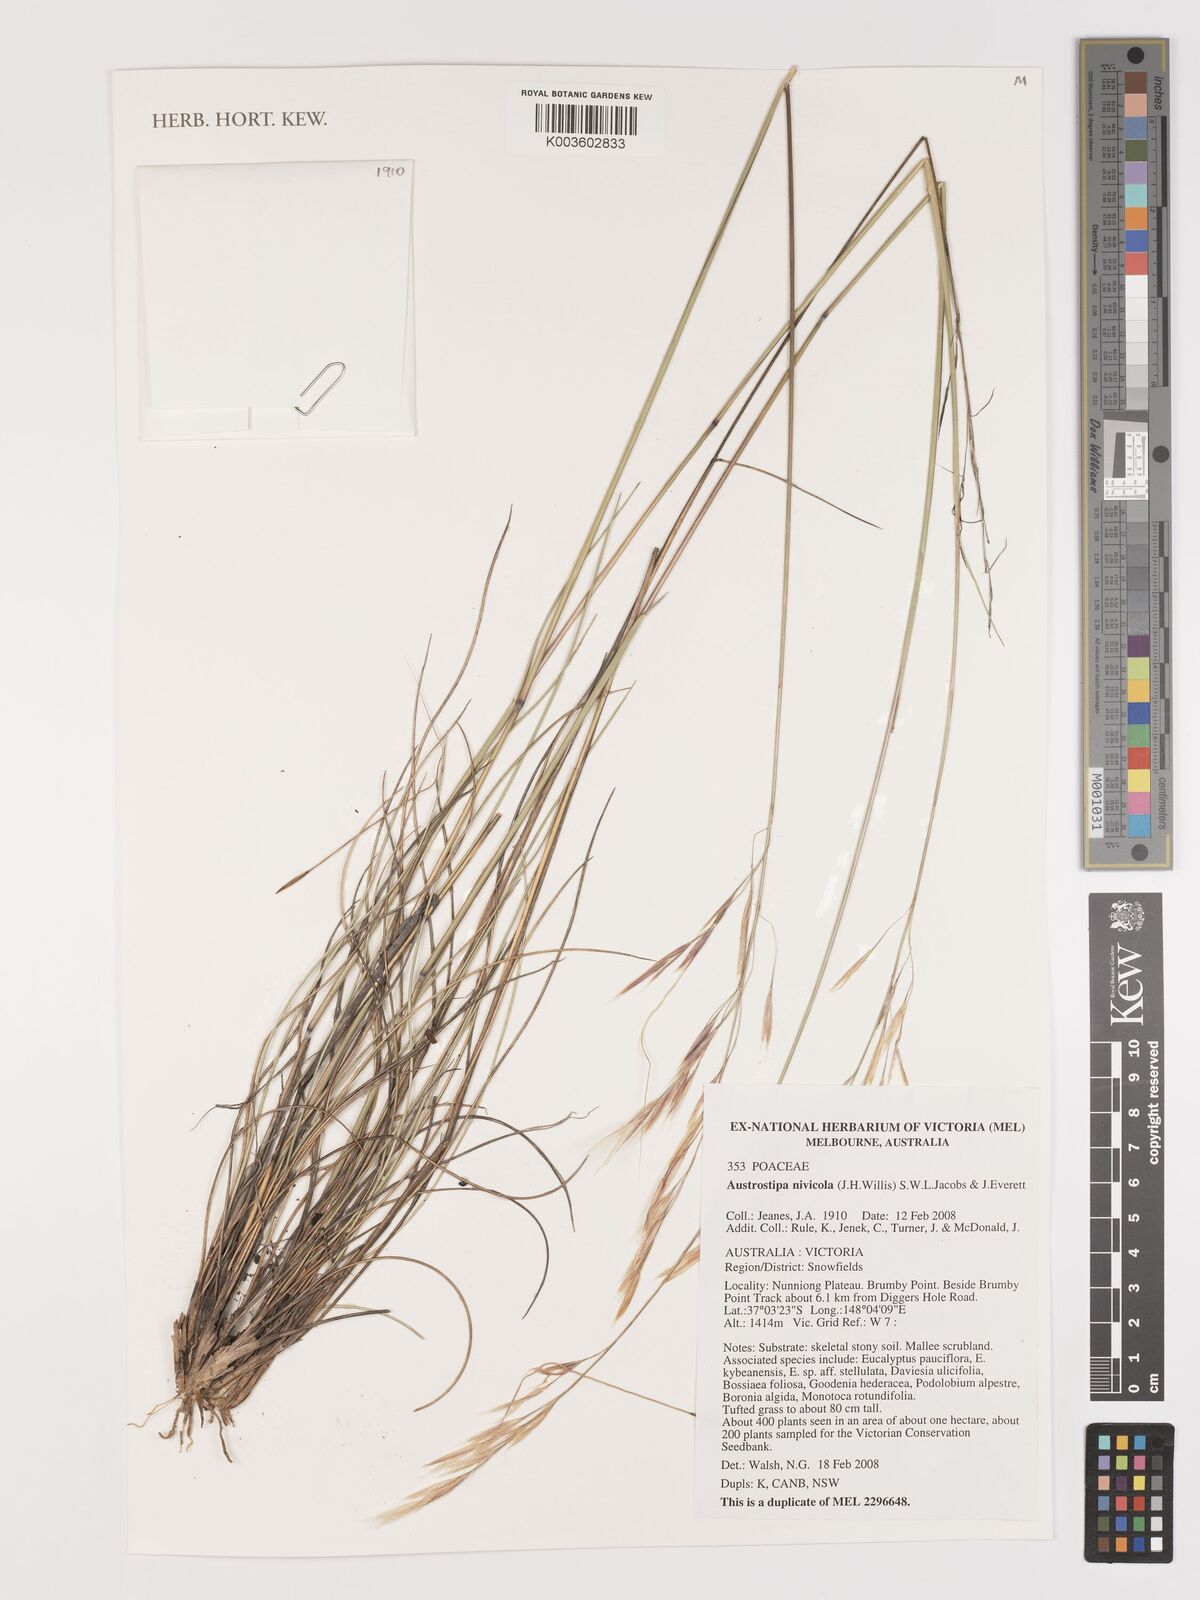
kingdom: Plantae
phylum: Tracheophyta
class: Liliopsida
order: Poales
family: Poaceae
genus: Austrostipa
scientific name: Austrostipa nivicola
